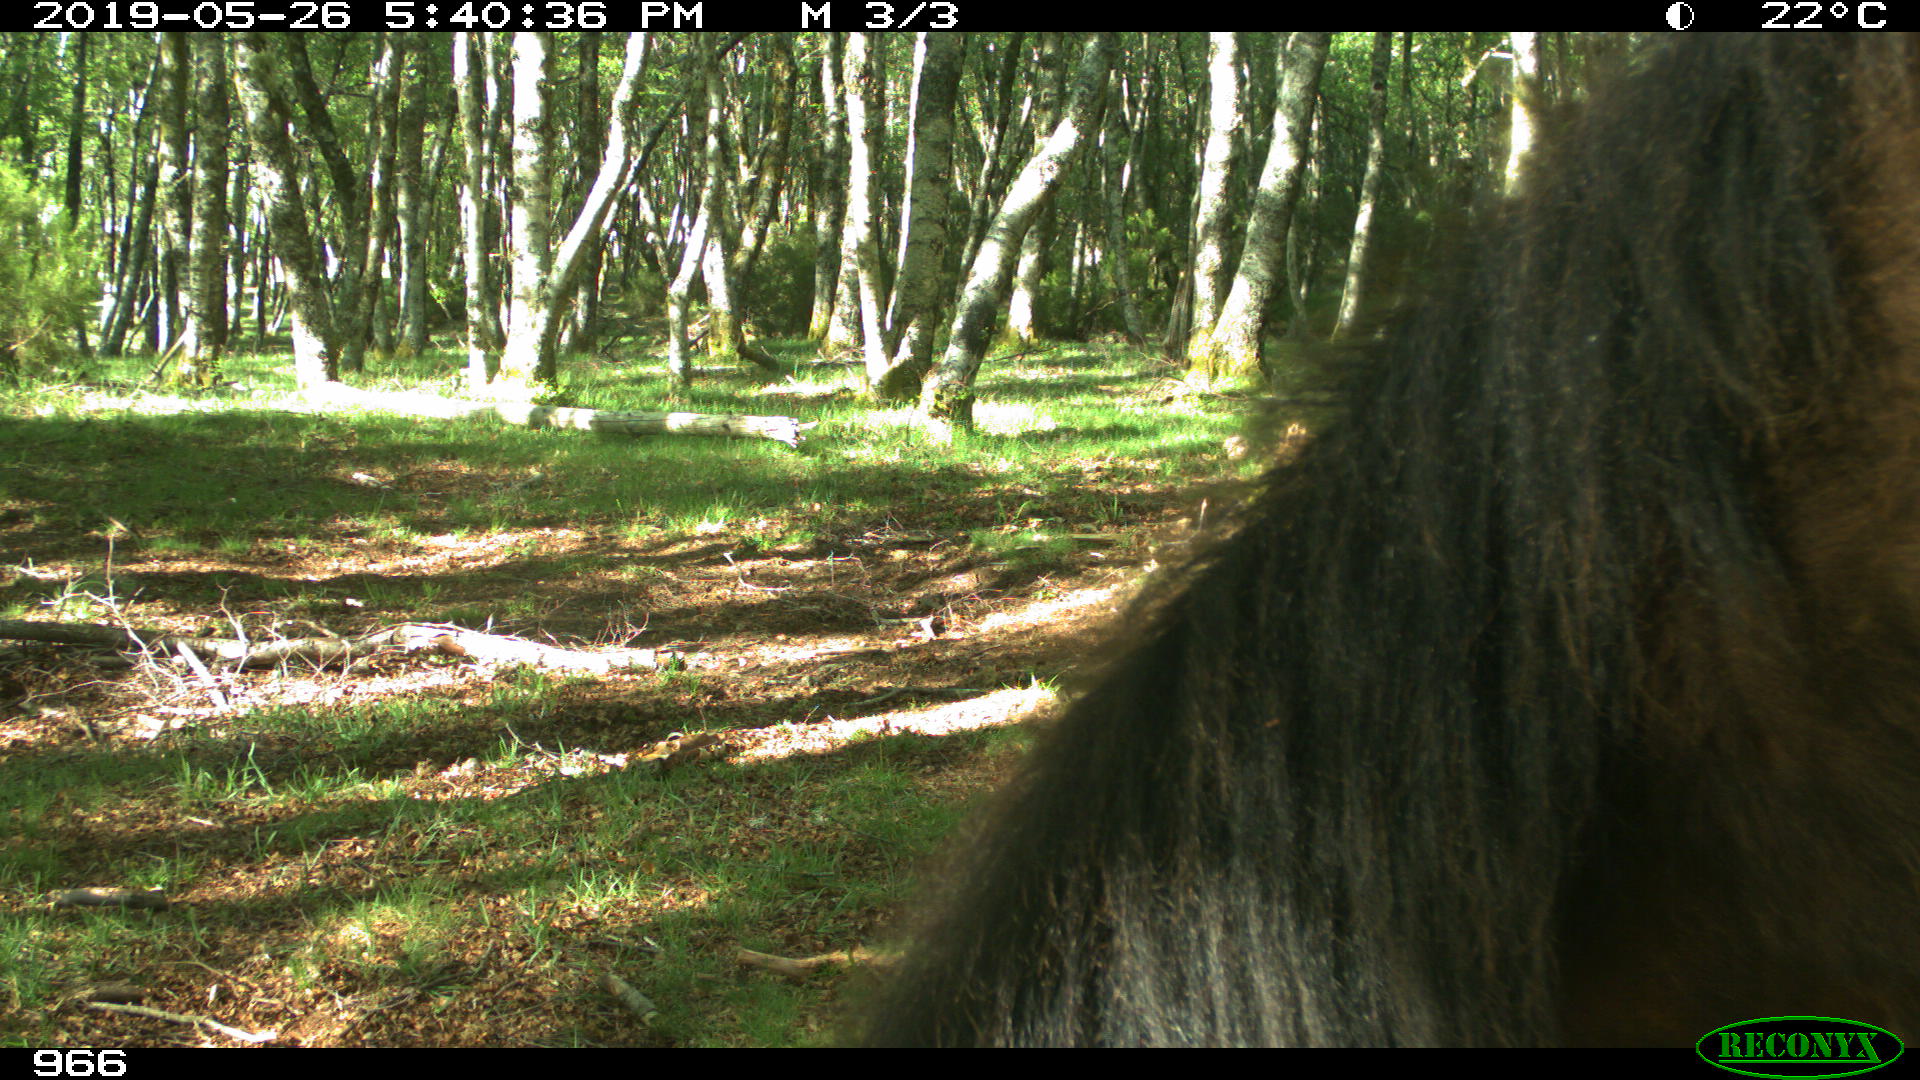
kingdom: Animalia
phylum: Chordata
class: Mammalia
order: Perissodactyla
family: Equidae
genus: Equus
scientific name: Equus caballus
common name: Horse
